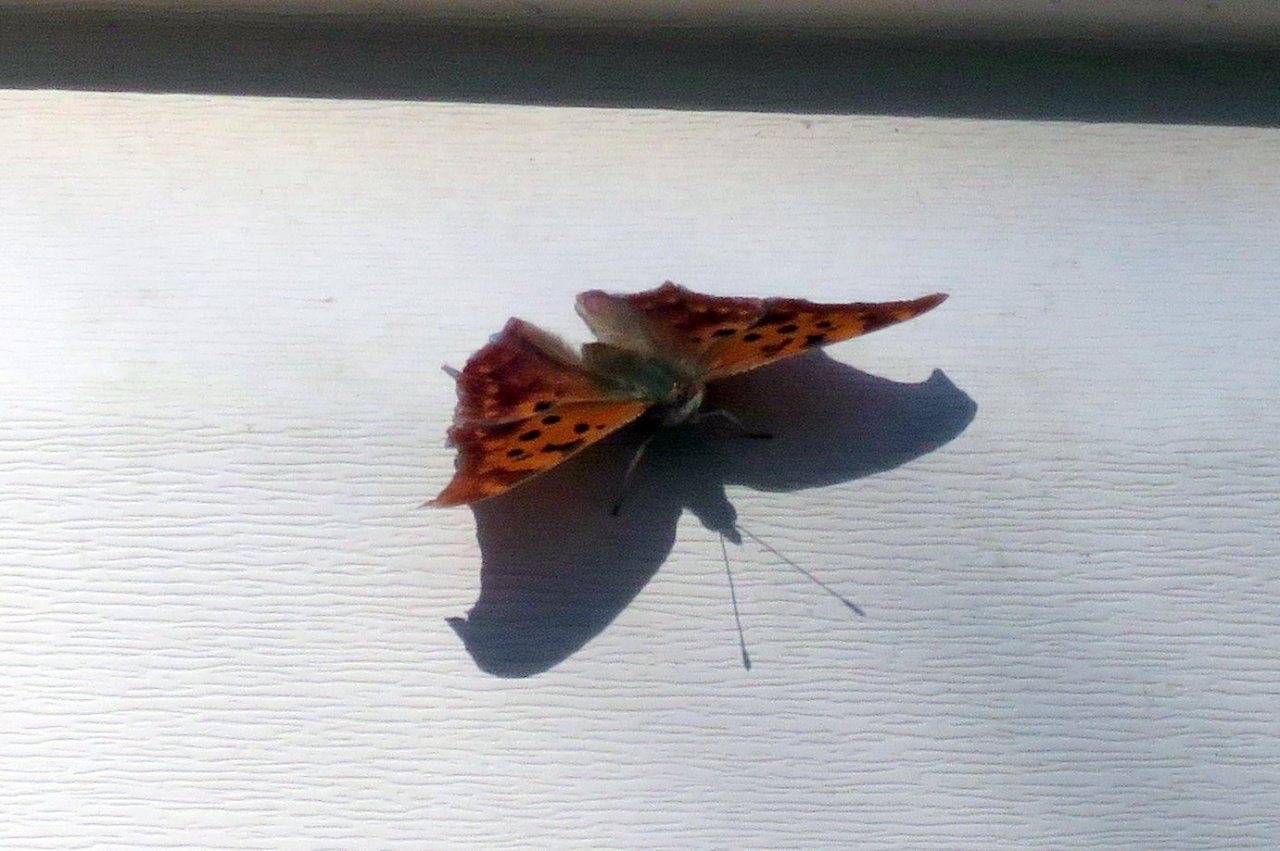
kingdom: Animalia
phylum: Arthropoda
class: Insecta
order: Lepidoptera
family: Nymphalidae
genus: Polygonia
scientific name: Polygonia interrogationis
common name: Question Mark
